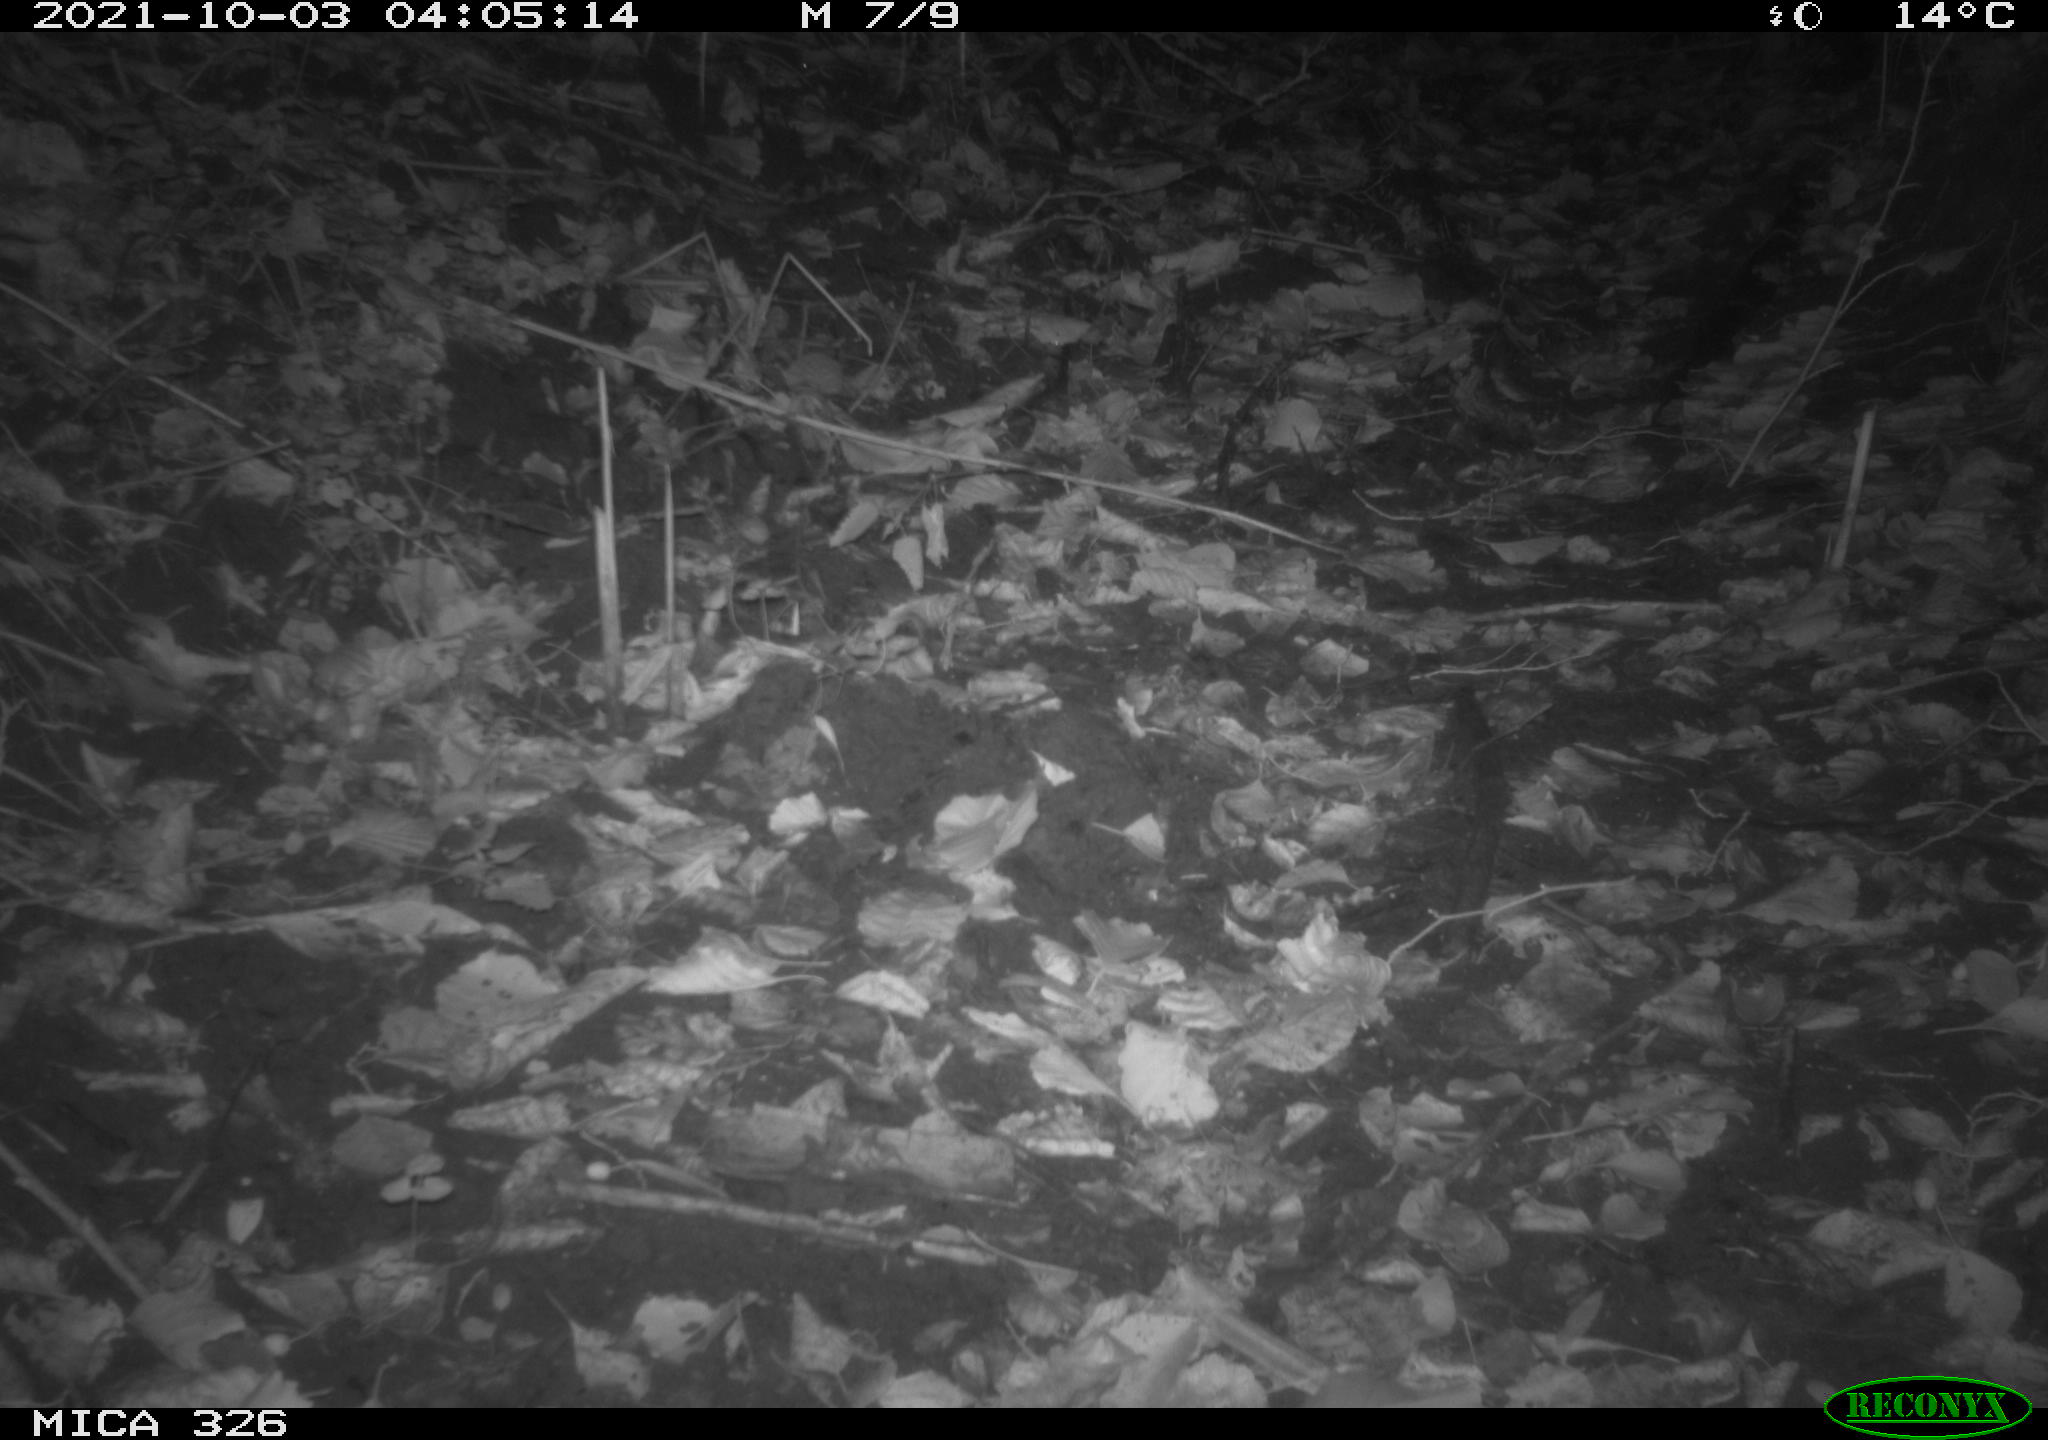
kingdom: Animalia
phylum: Chordata
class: Mammalia
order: Rodentia
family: Myocastoridae
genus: Myocastor
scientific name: Myocastor coypus
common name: Coypu
